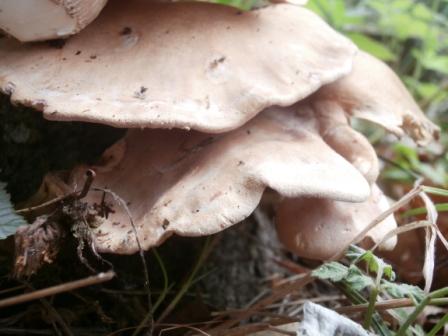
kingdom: Fungi
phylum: Basidiomycota
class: Agaricomycetes
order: Agaricales
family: Pleurotaceae
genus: Pleurotus
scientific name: Pleurotus pulmonarius
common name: sommer-østershat
